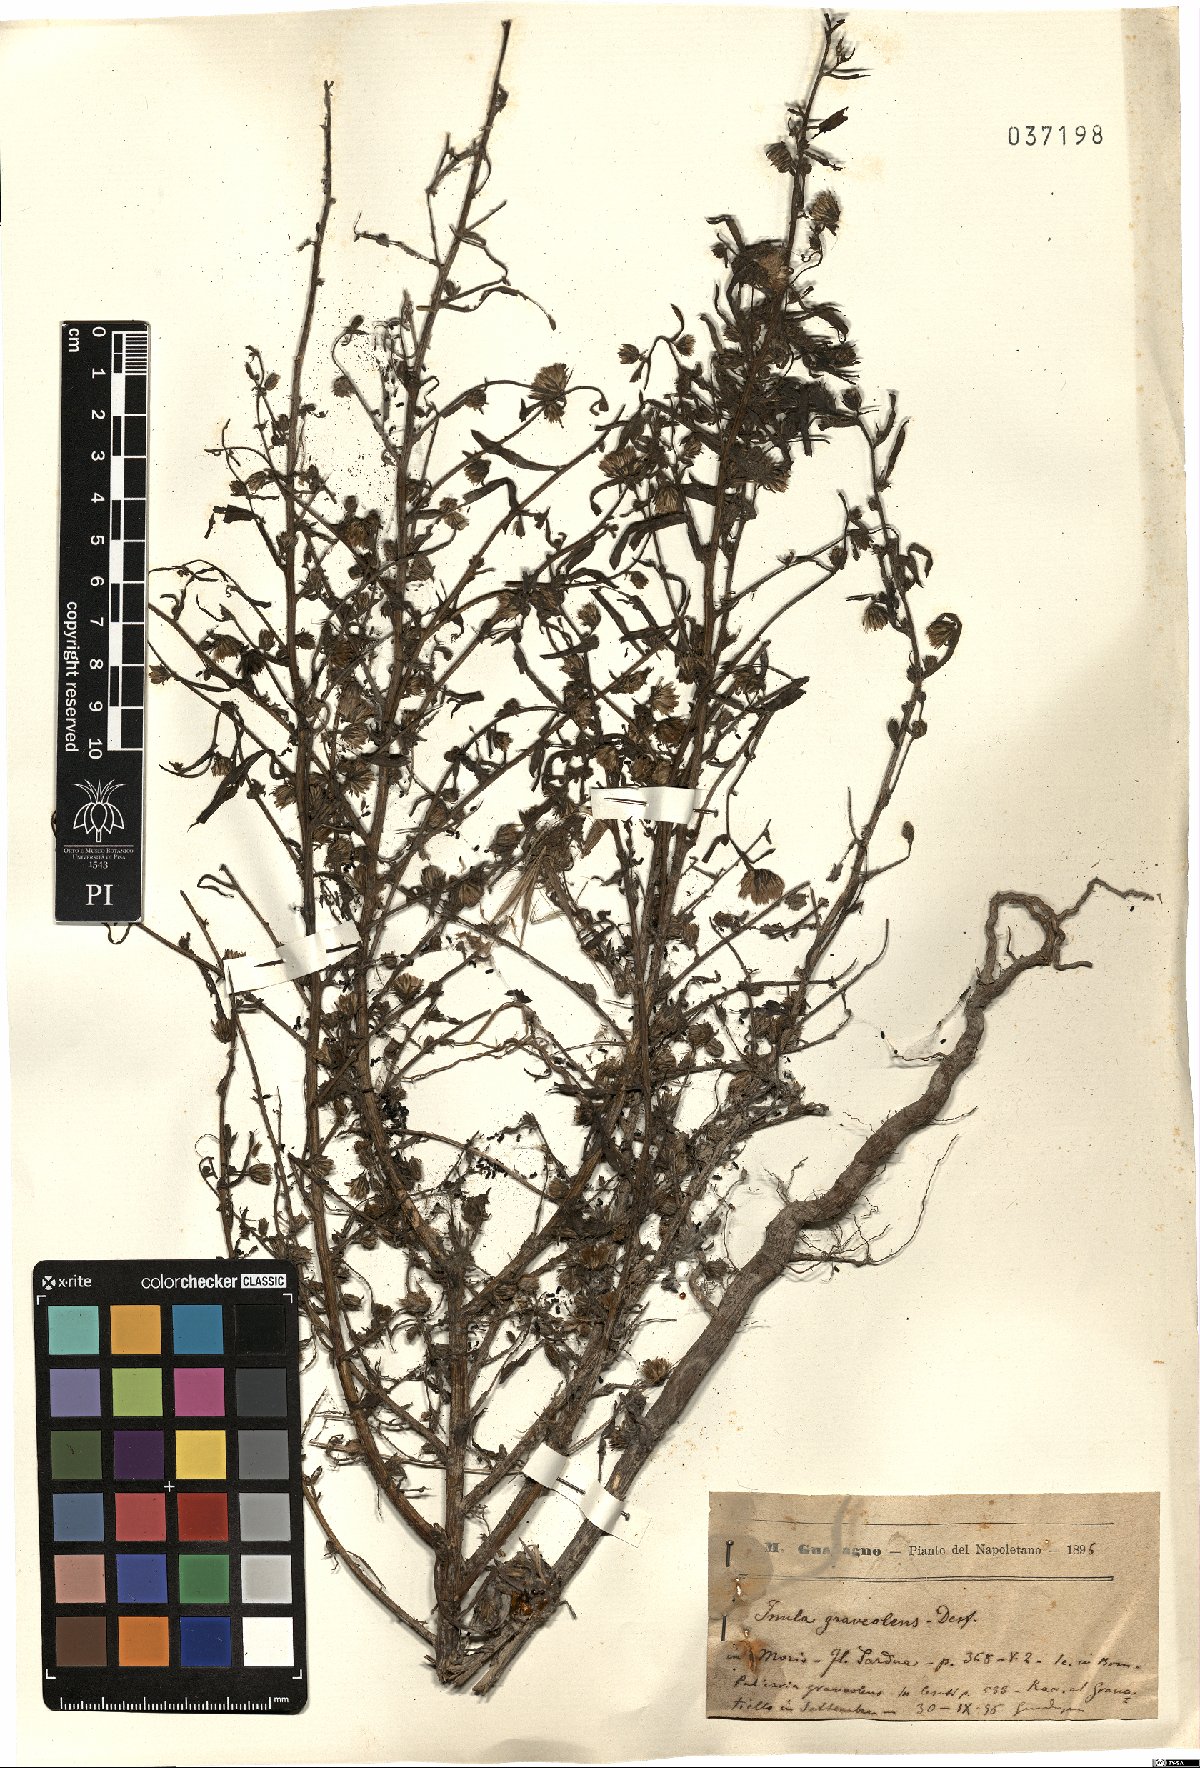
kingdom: Plantae
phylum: Tracheophyta
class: Magnoliopsida
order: Asterales
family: Asteraceae
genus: Dittrichia
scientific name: Dittrichia graveolens
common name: Stinking fleabane
